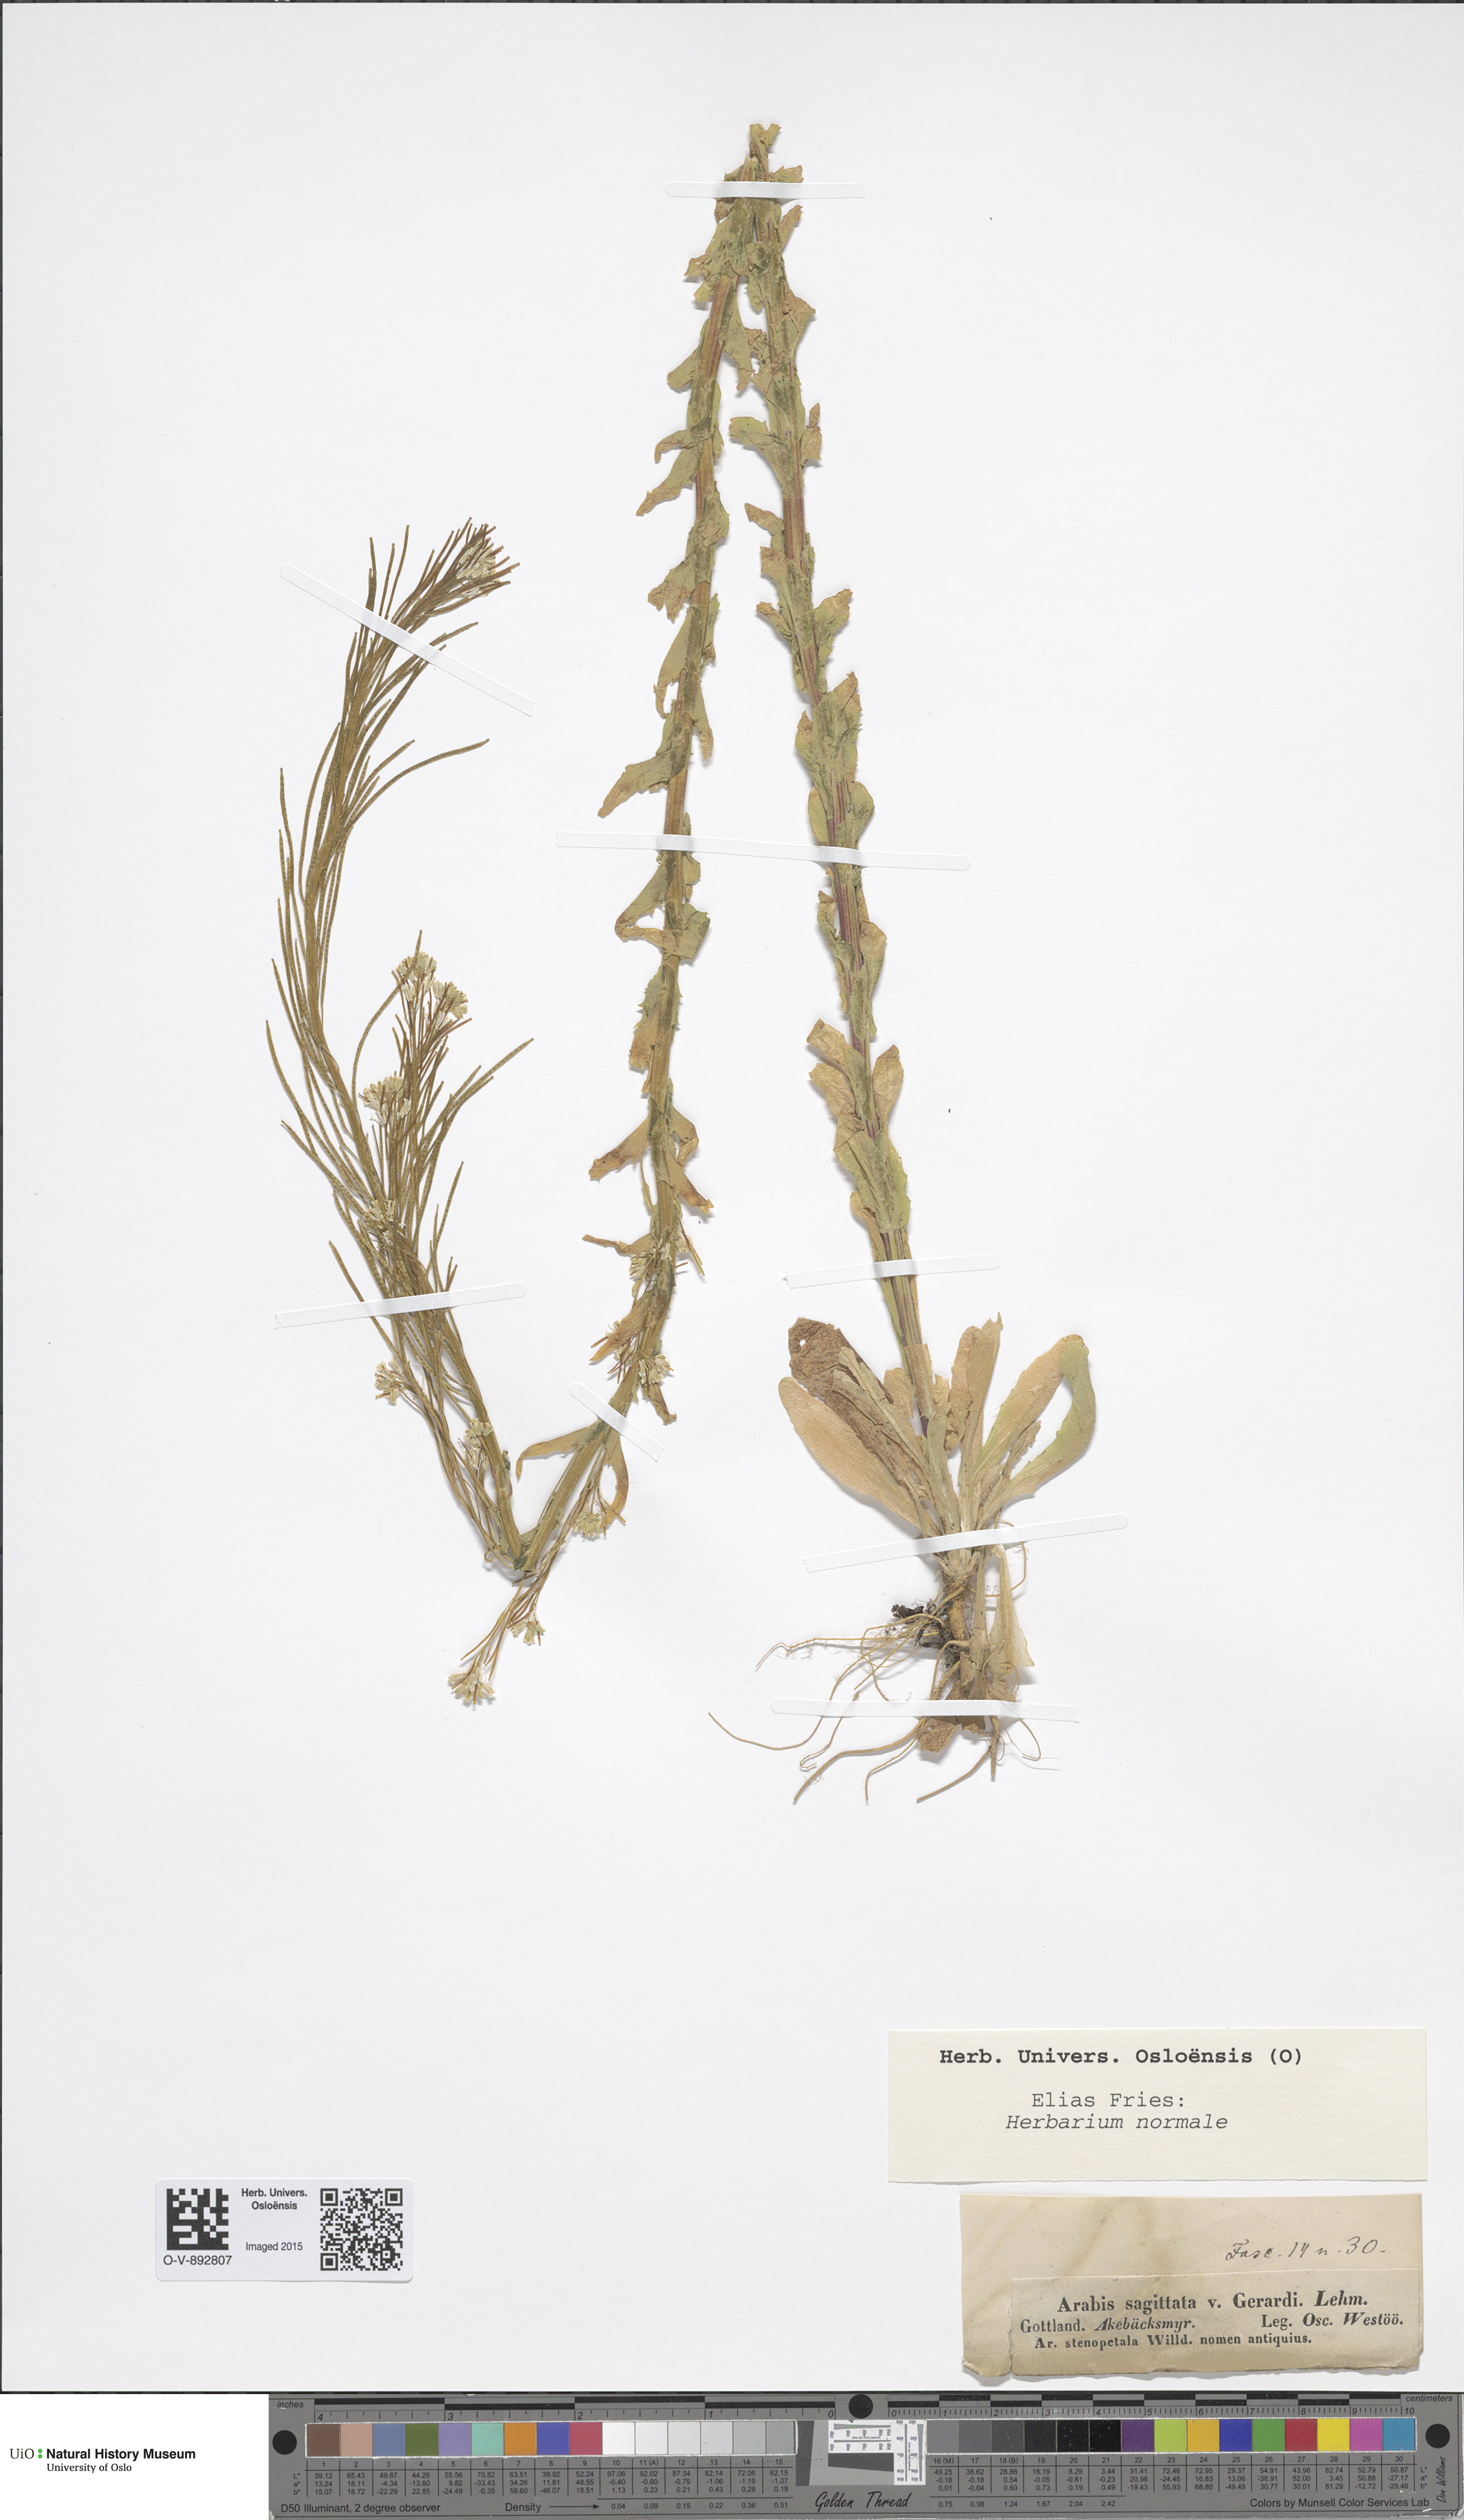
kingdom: Plantae
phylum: Tracheophyta
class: Magnoliopsida
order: Brassicales
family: Brassicaceae
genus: Arabis
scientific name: Arabis sagittata
